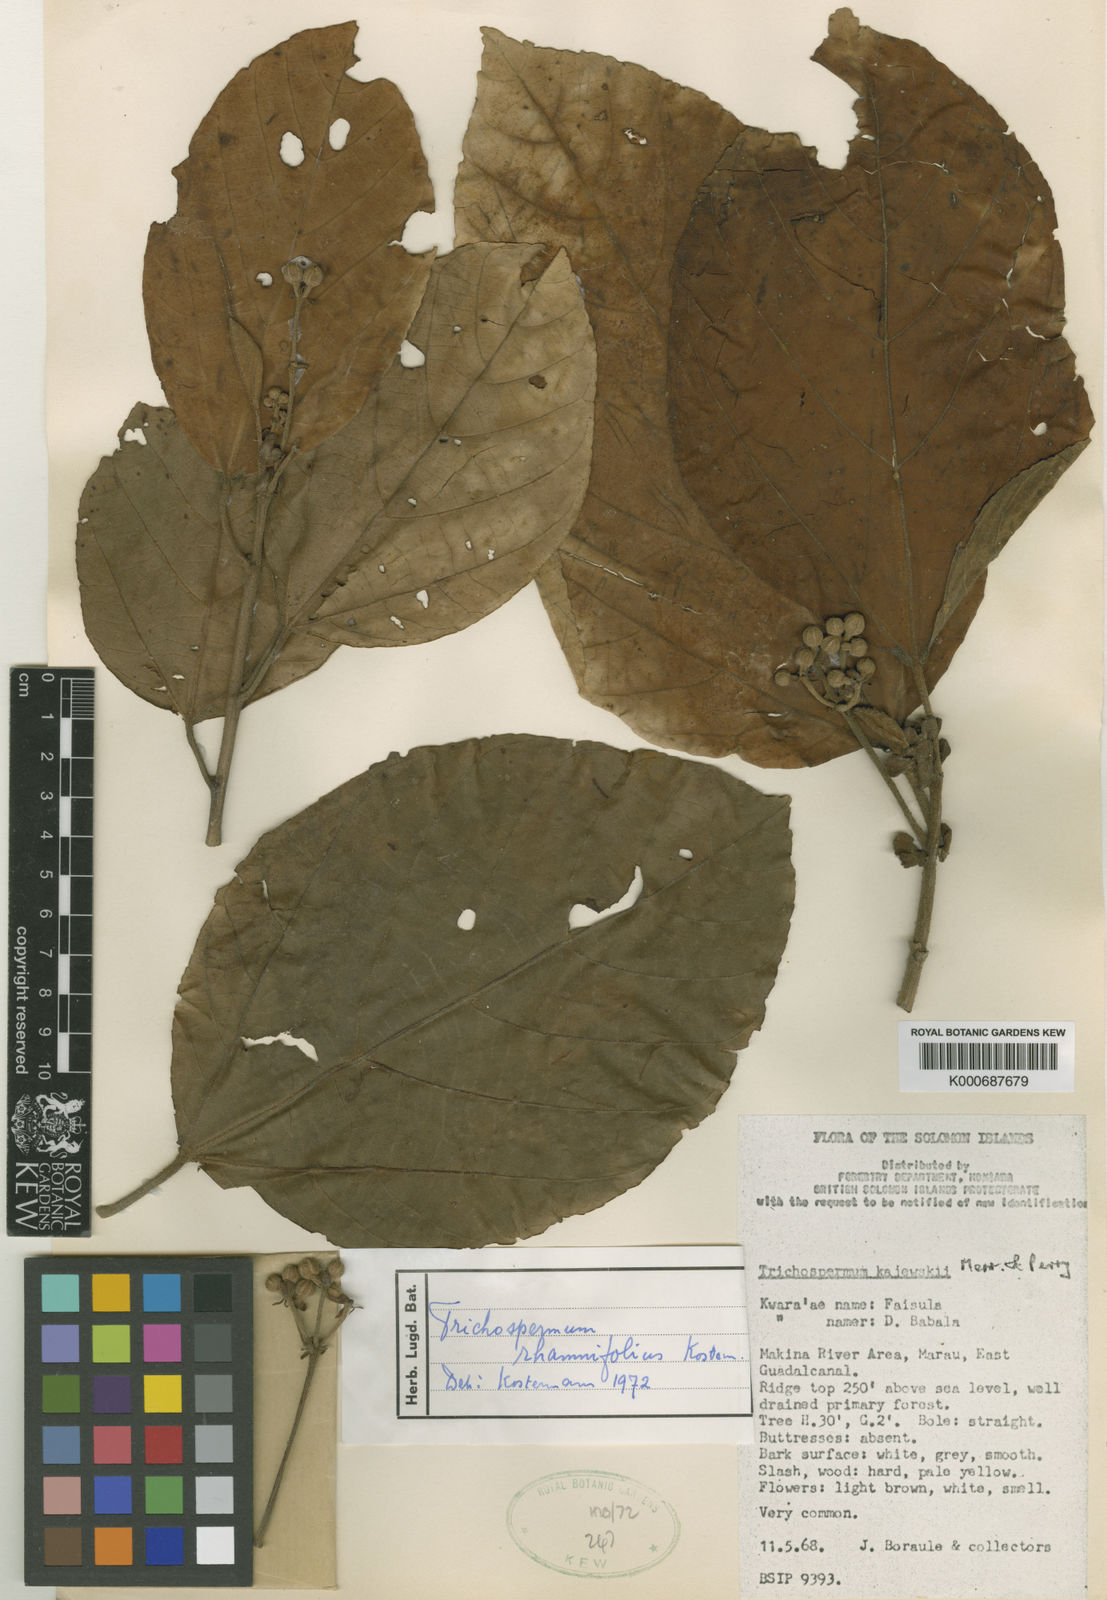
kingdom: Plantae
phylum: Tracheophyta
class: Magnoliopsida
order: Malvales
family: Malvaceae
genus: Trichospermum
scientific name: Trichospermum arachnoideum
